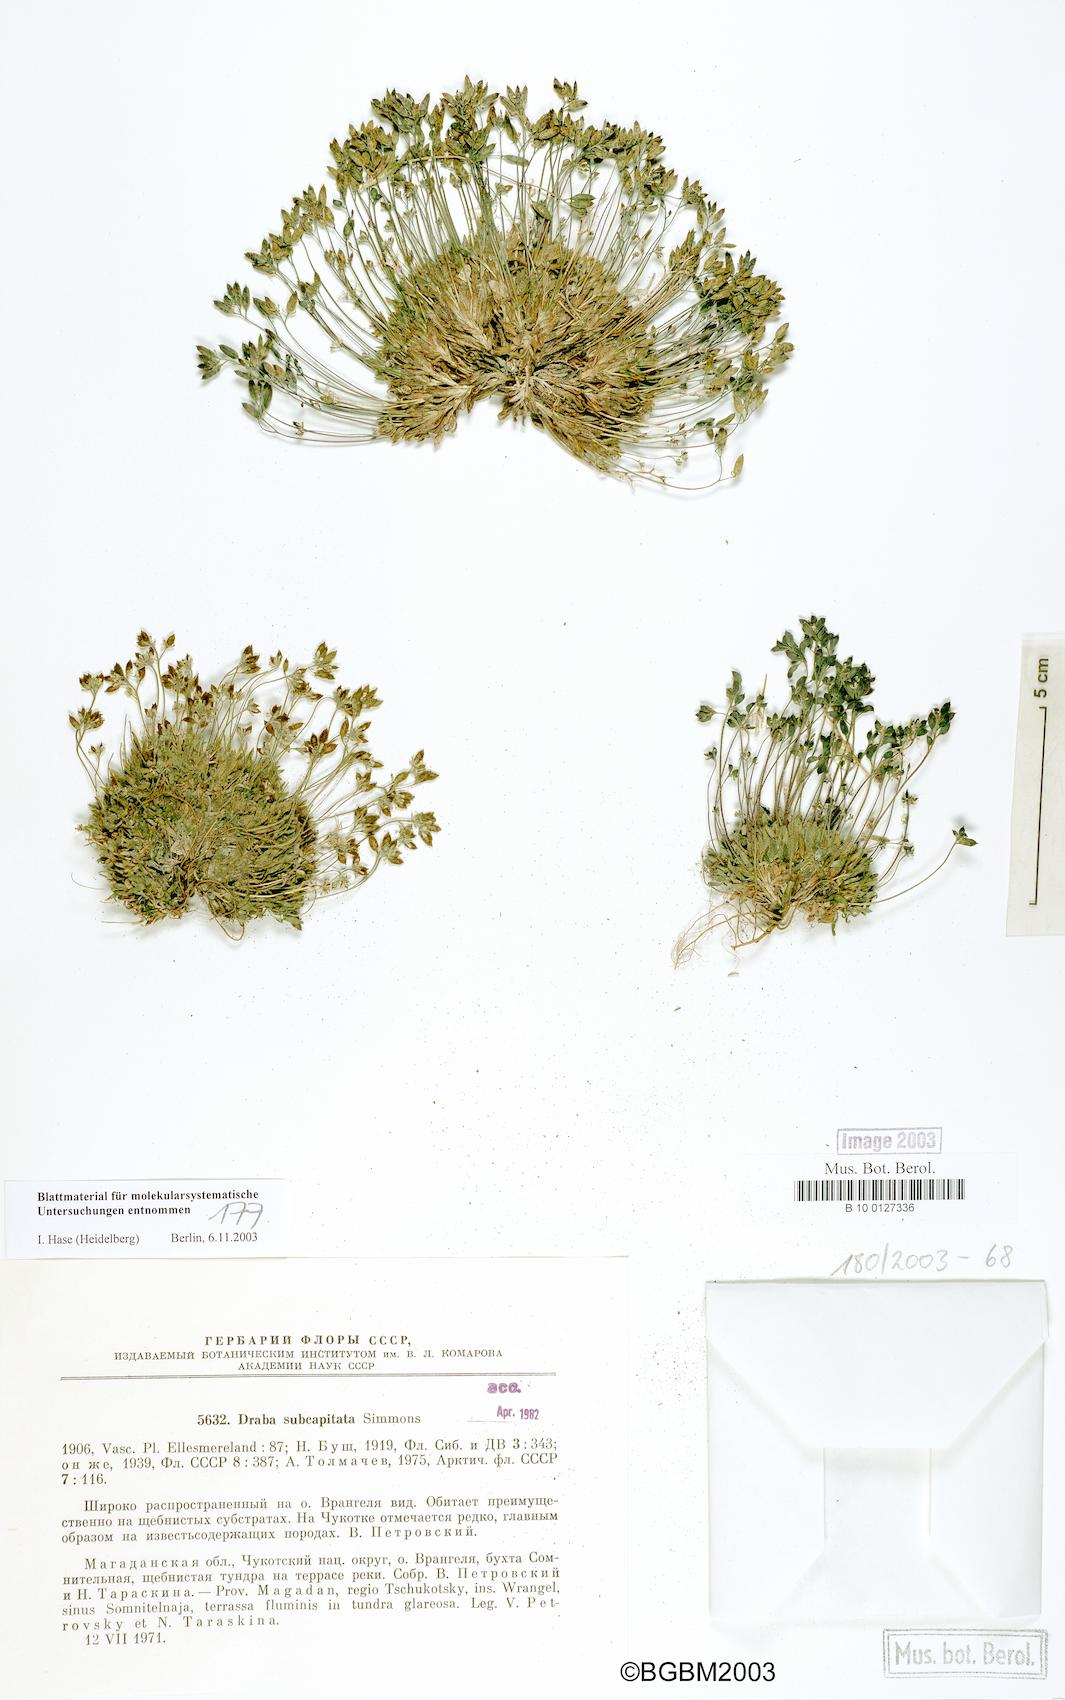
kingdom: Plantae
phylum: Tracheophyta
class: Magnoliopsida
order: Brassicales
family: Brassicaceae
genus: Draba
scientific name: Draba subcapitata
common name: Ellesmere island draba
